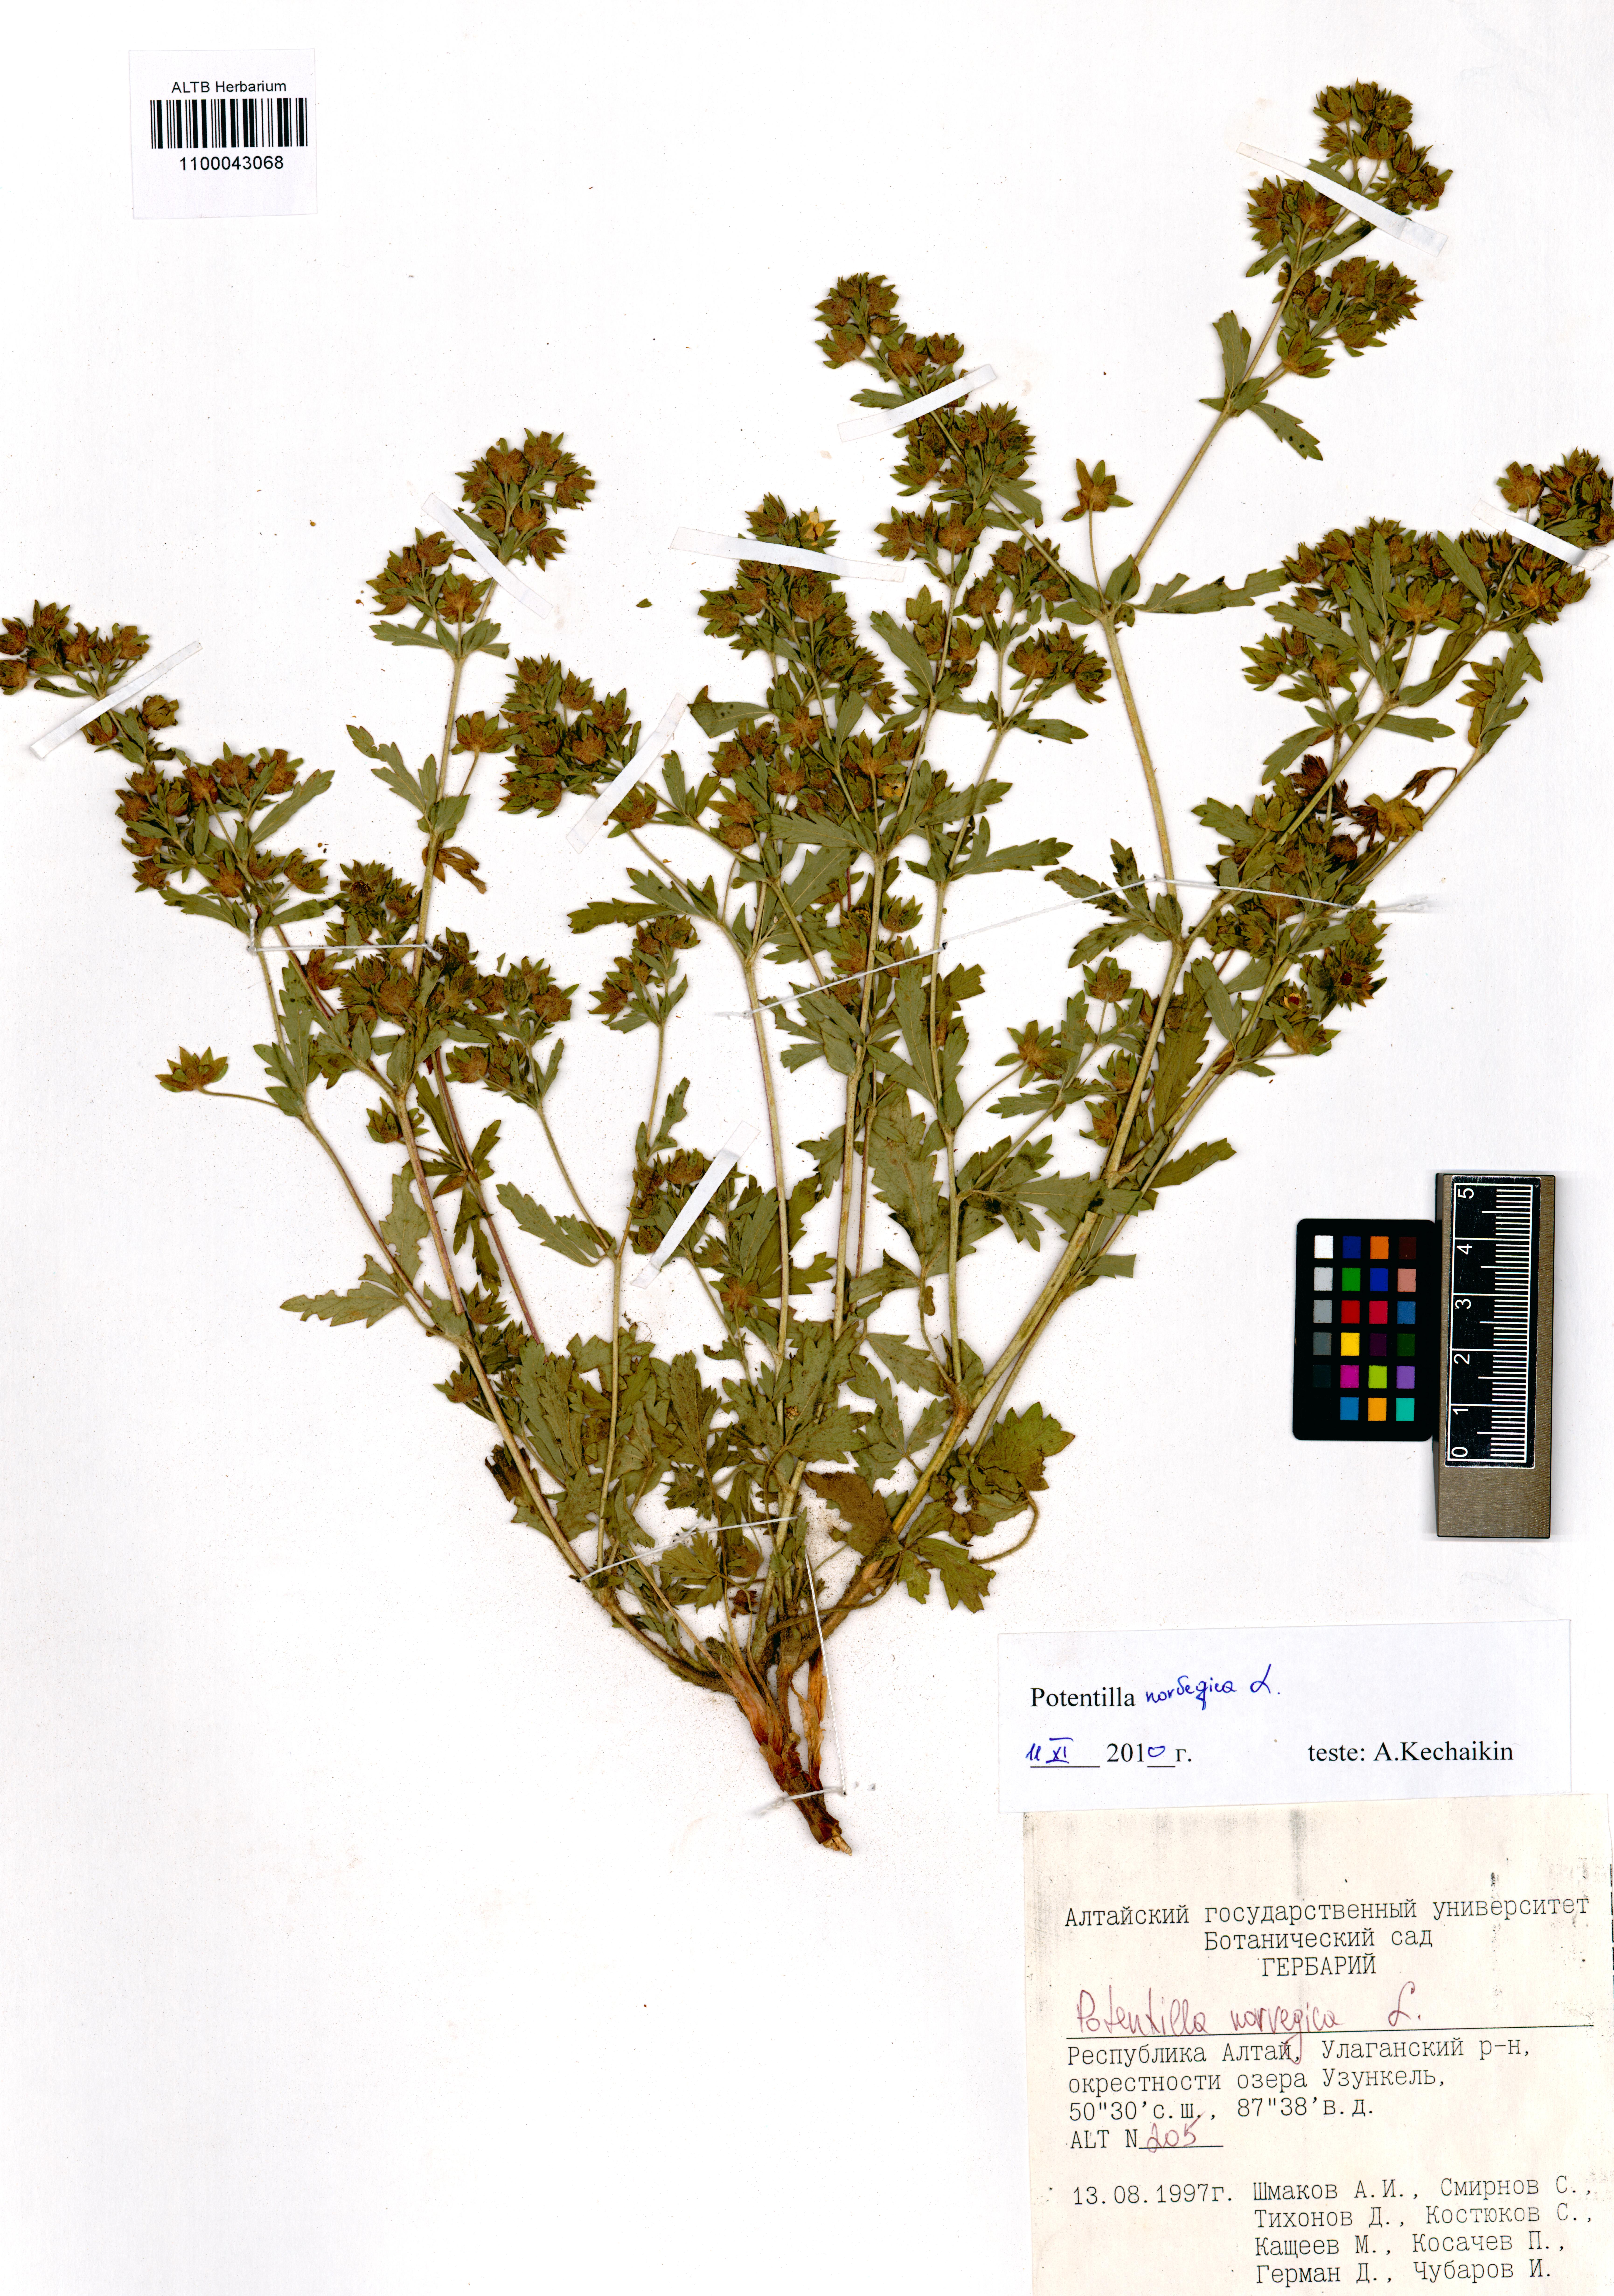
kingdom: Plantae
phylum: Tracheophyta
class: Magnoliopsida
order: Rosales
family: Rosaceae
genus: Potentilla
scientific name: Potentilla norvegica
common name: Ternate-leaved cinquefoil
